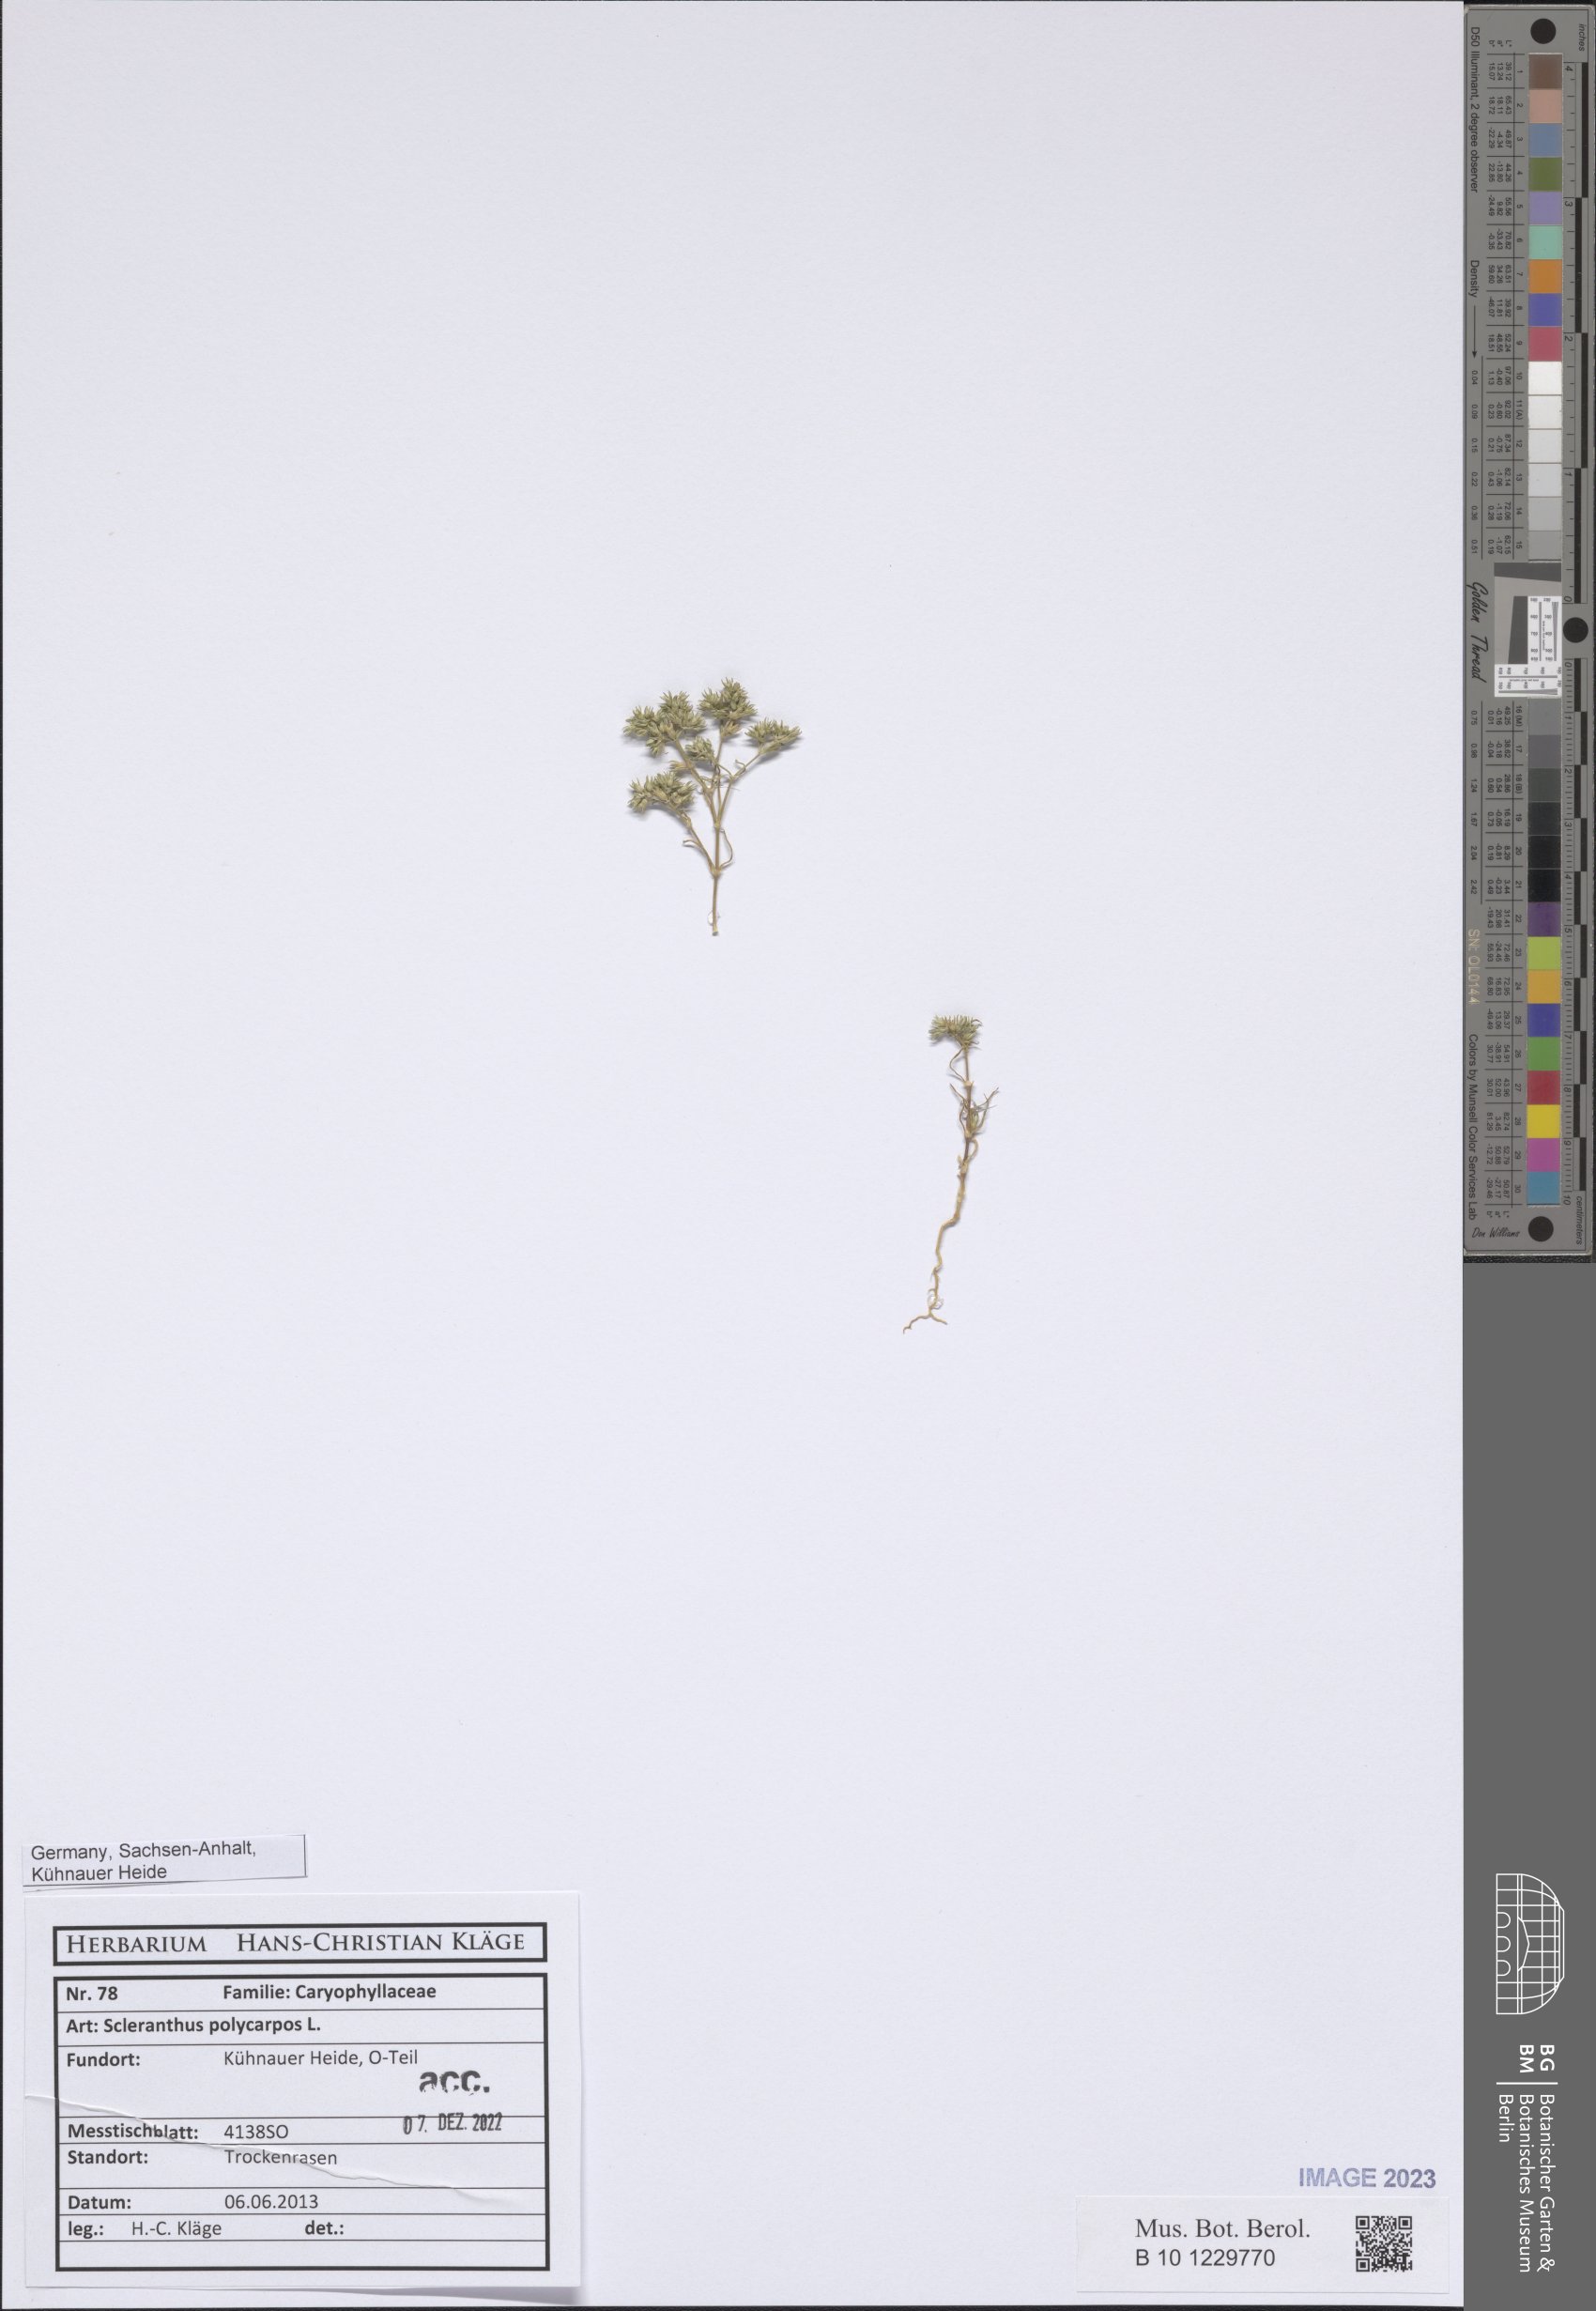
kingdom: Plantae
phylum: Tracheophyta
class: Magnoliopsida
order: Caryophyllales
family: Caryophyllaceae
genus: Scleranthus
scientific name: Scleranthus annuus
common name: Annual knawel
